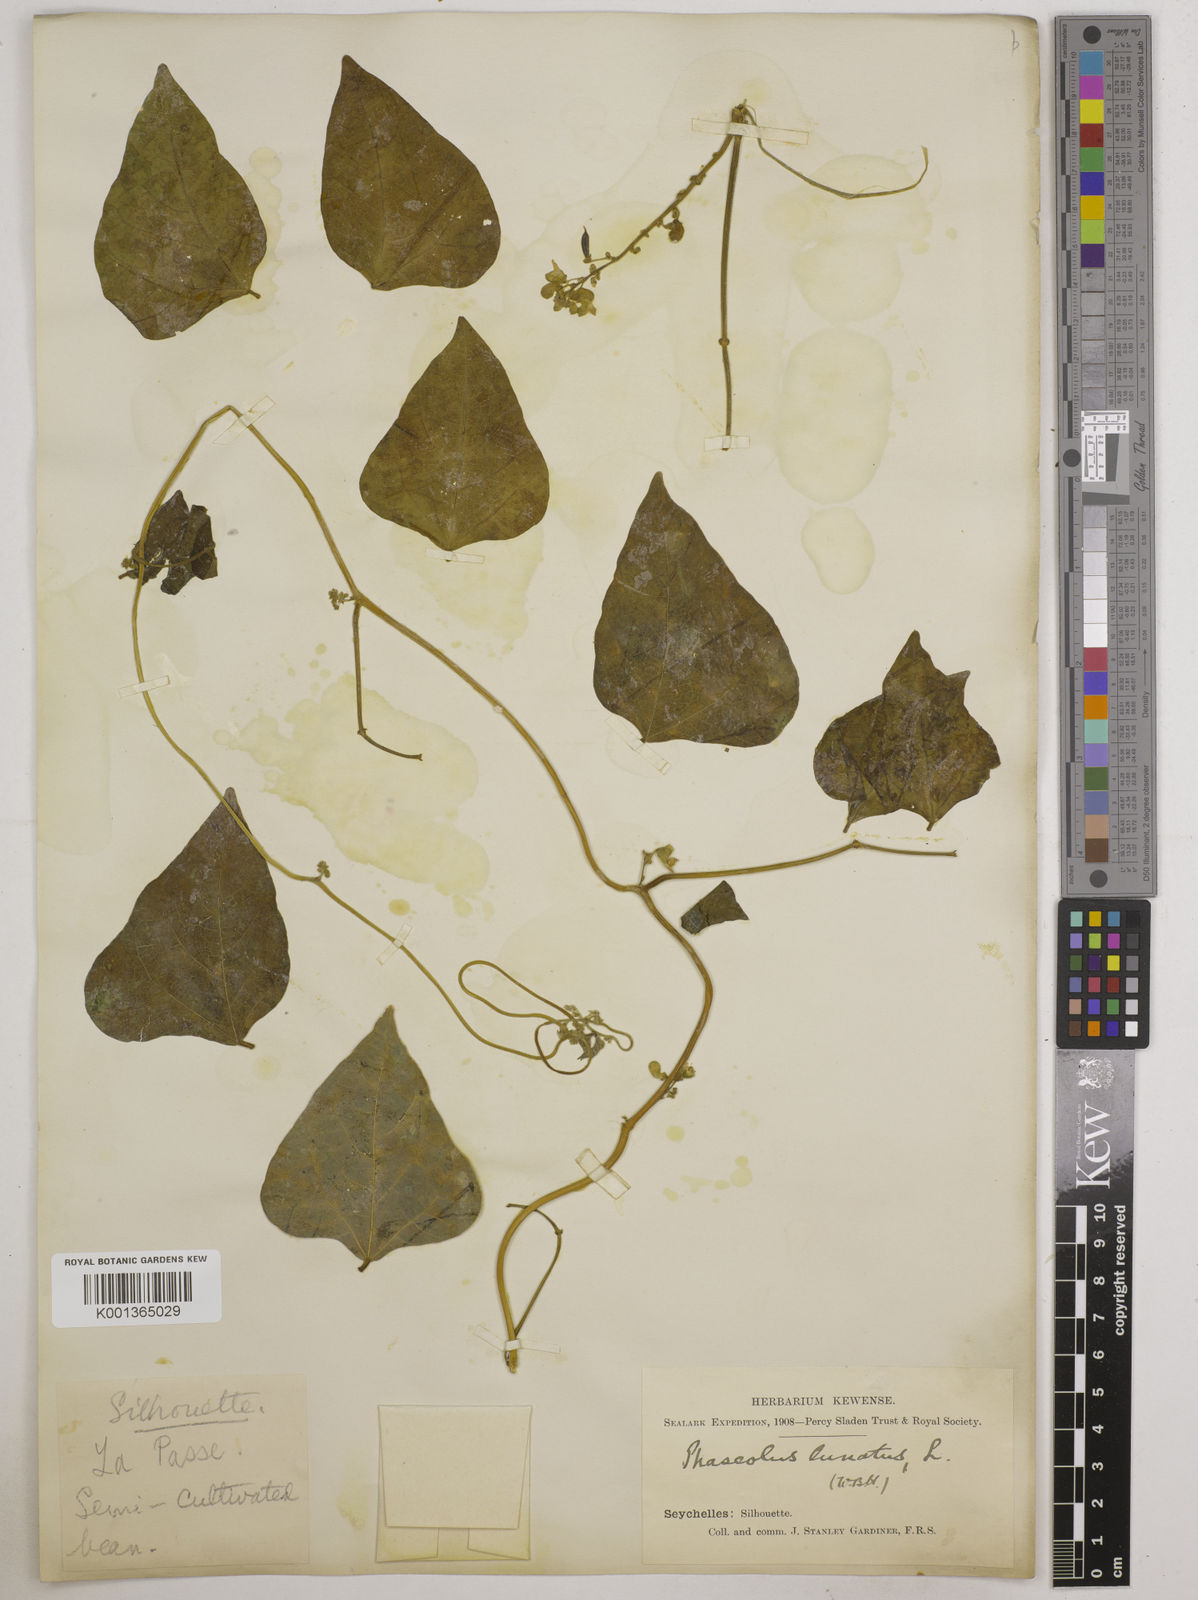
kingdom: Plantae
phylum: Tracheophyta
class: Magnoliopsida
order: Fabales
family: Fabaceae
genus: Phaseolus
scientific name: Phaseolus lunatus
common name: Sieva bean
